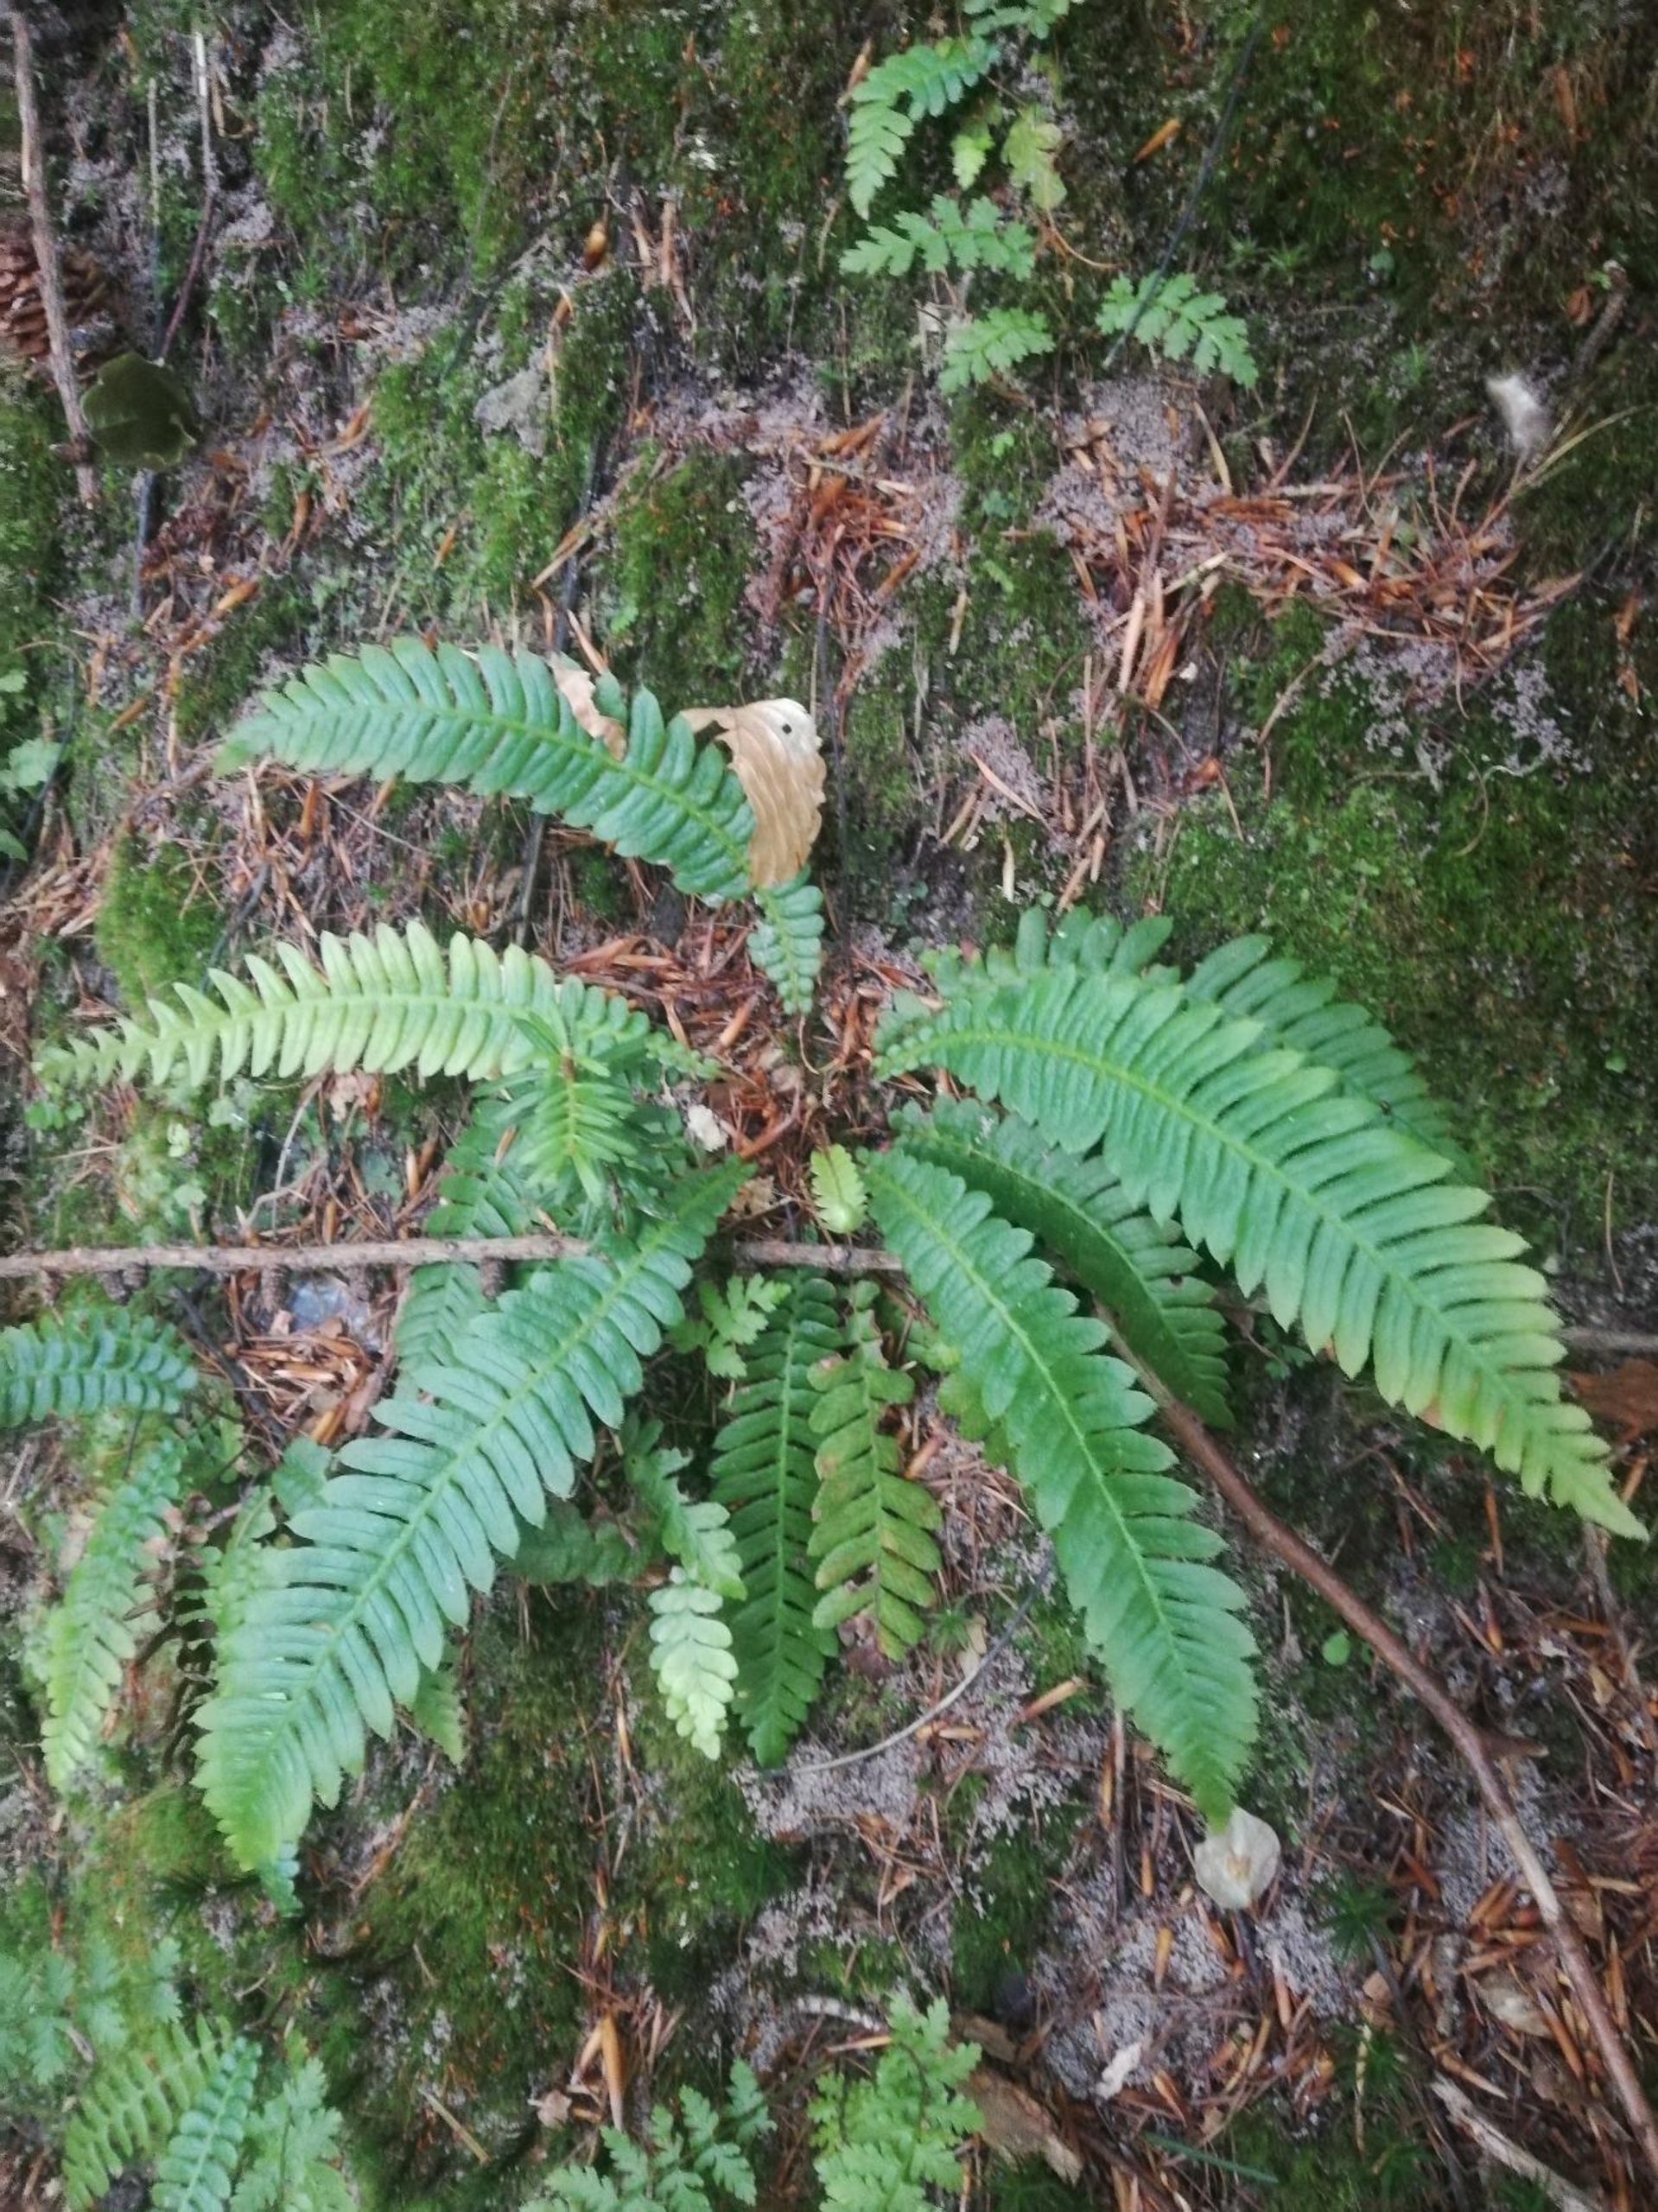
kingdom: Plantae
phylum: Tracheophyta
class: Polypodiopsida
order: Polypodiales
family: Blechnaceae
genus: Struthiopteris
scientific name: Struthiopteris spicant
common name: Kambregne
